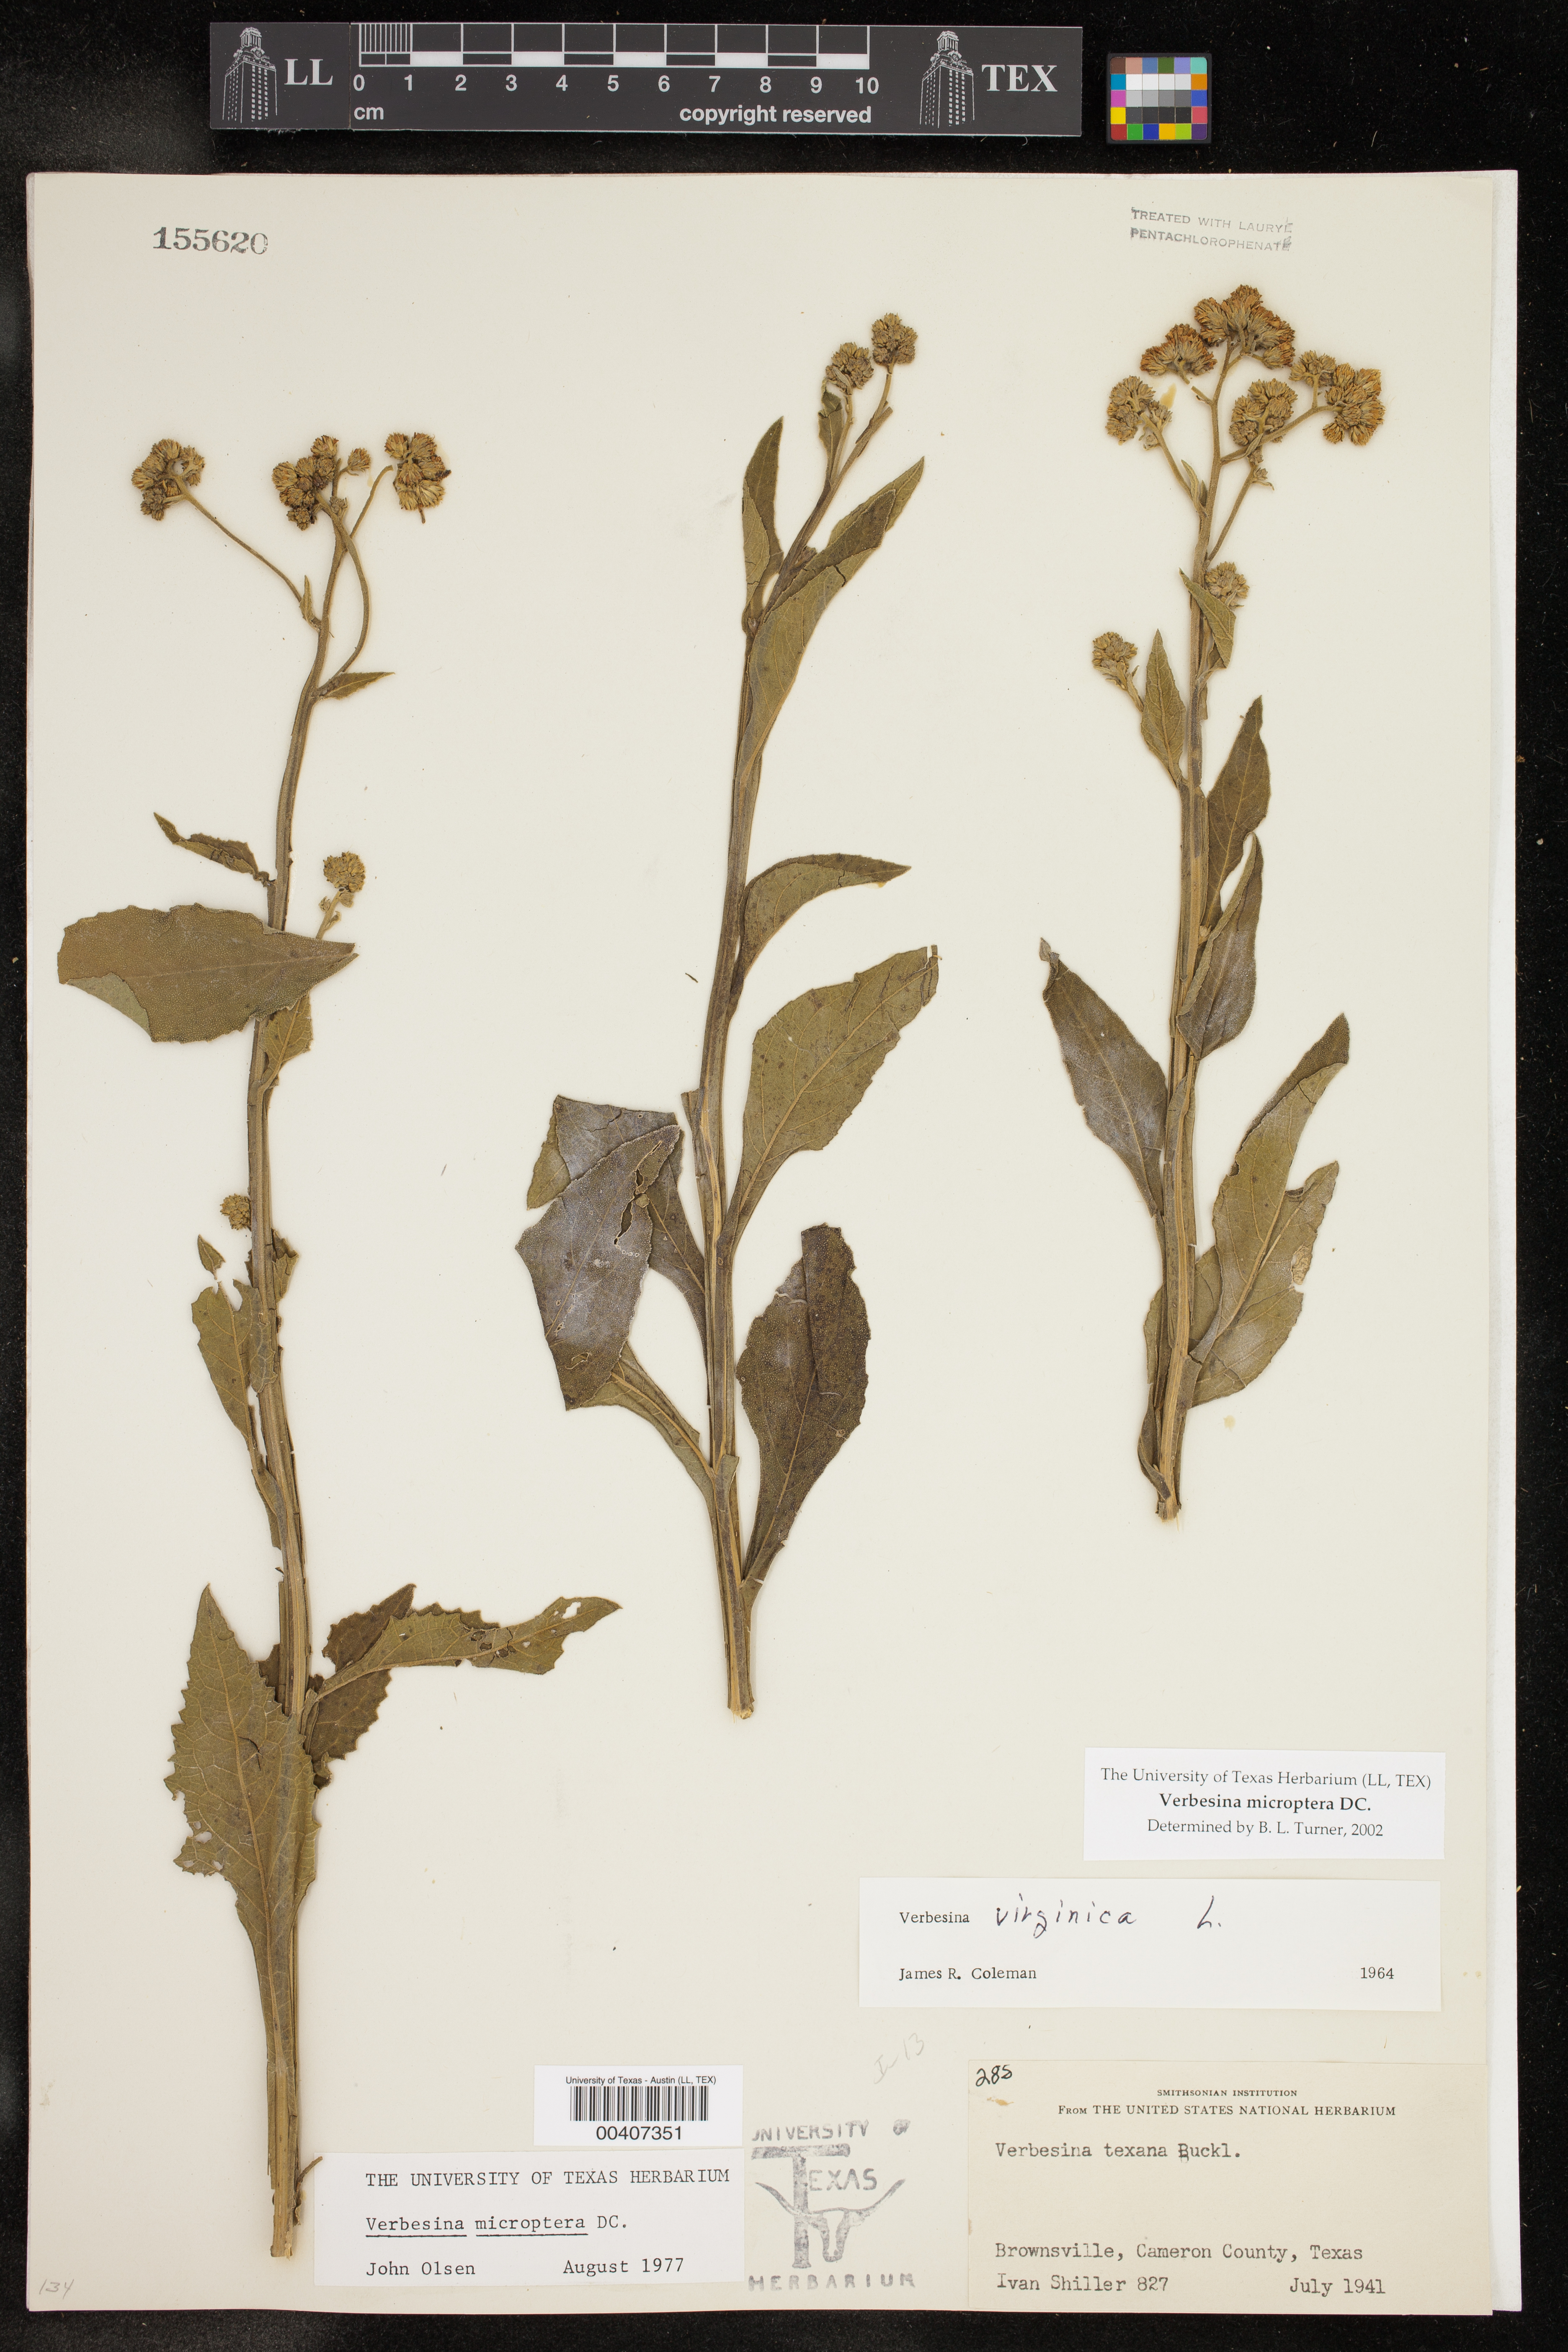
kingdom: Plantae
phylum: Tracheophyta
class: Magnoliopsida
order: Asterales
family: Asteraceae
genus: Verbesina
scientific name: Verbesina microptera
